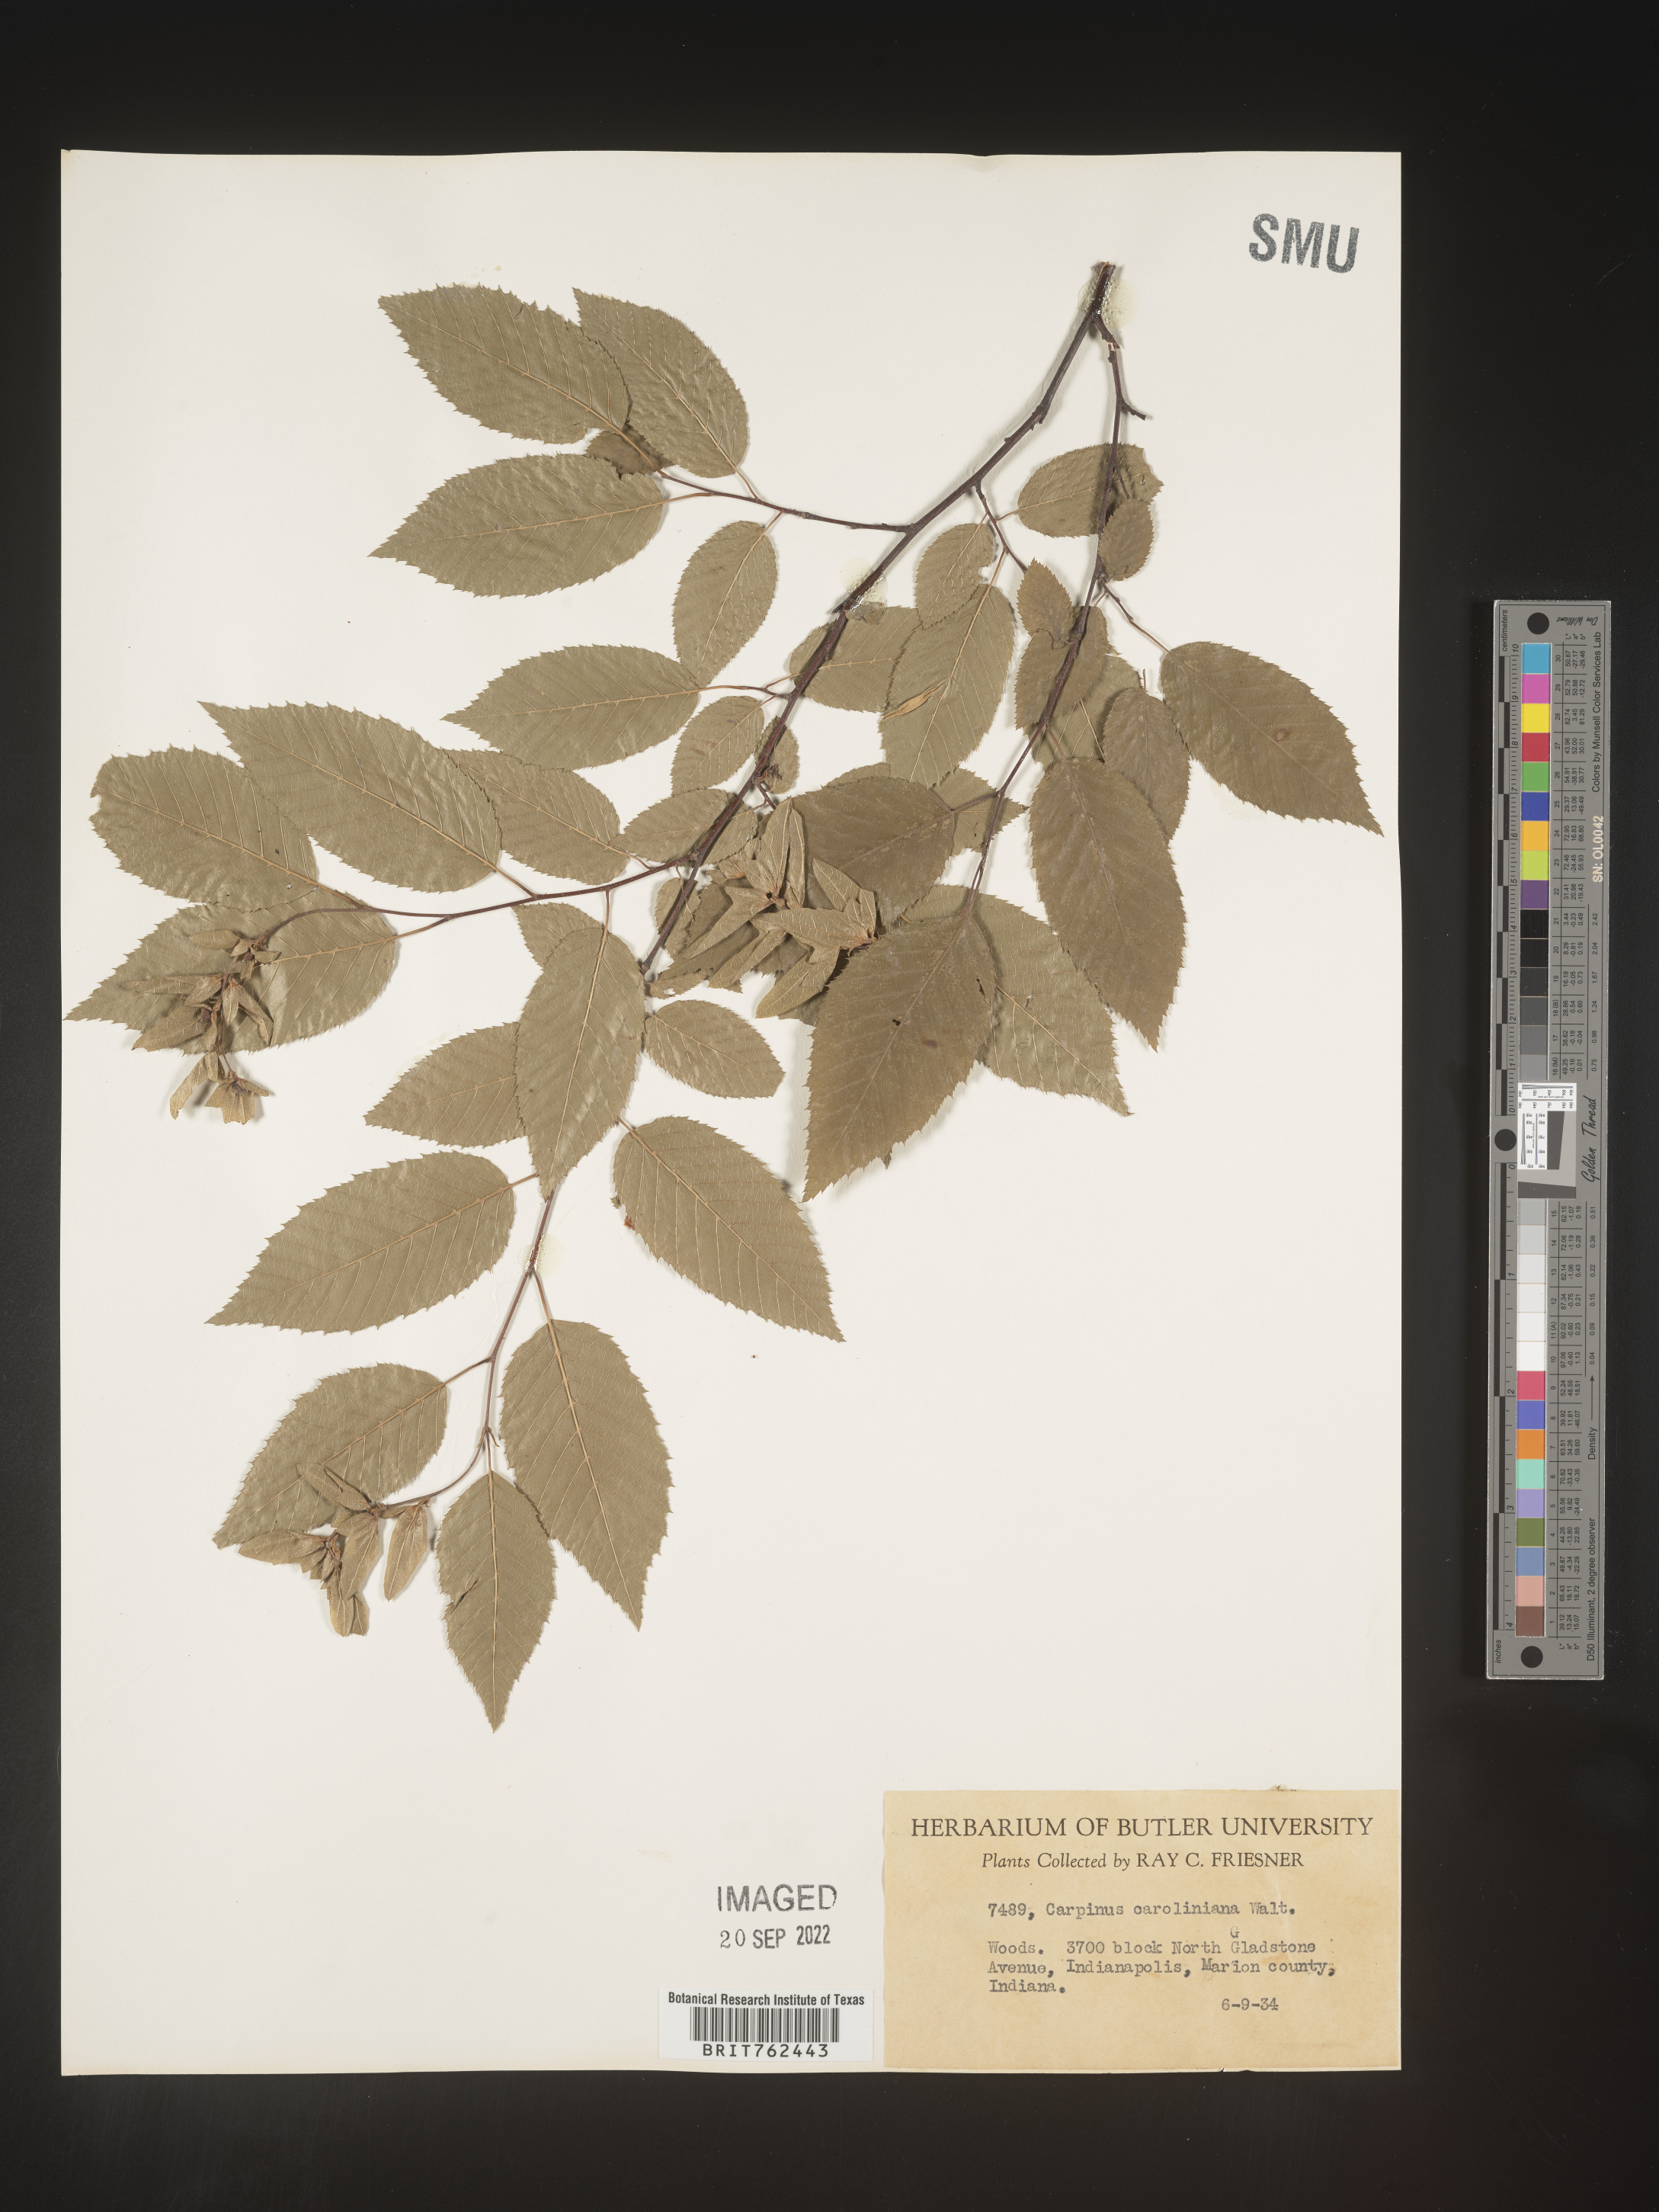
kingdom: Plantae
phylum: Tracheophyta
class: Magnoliopsida
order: Fagales
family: Betulaceae
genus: Carpinus
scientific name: Carpinus caroliniana
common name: American hornbeam
